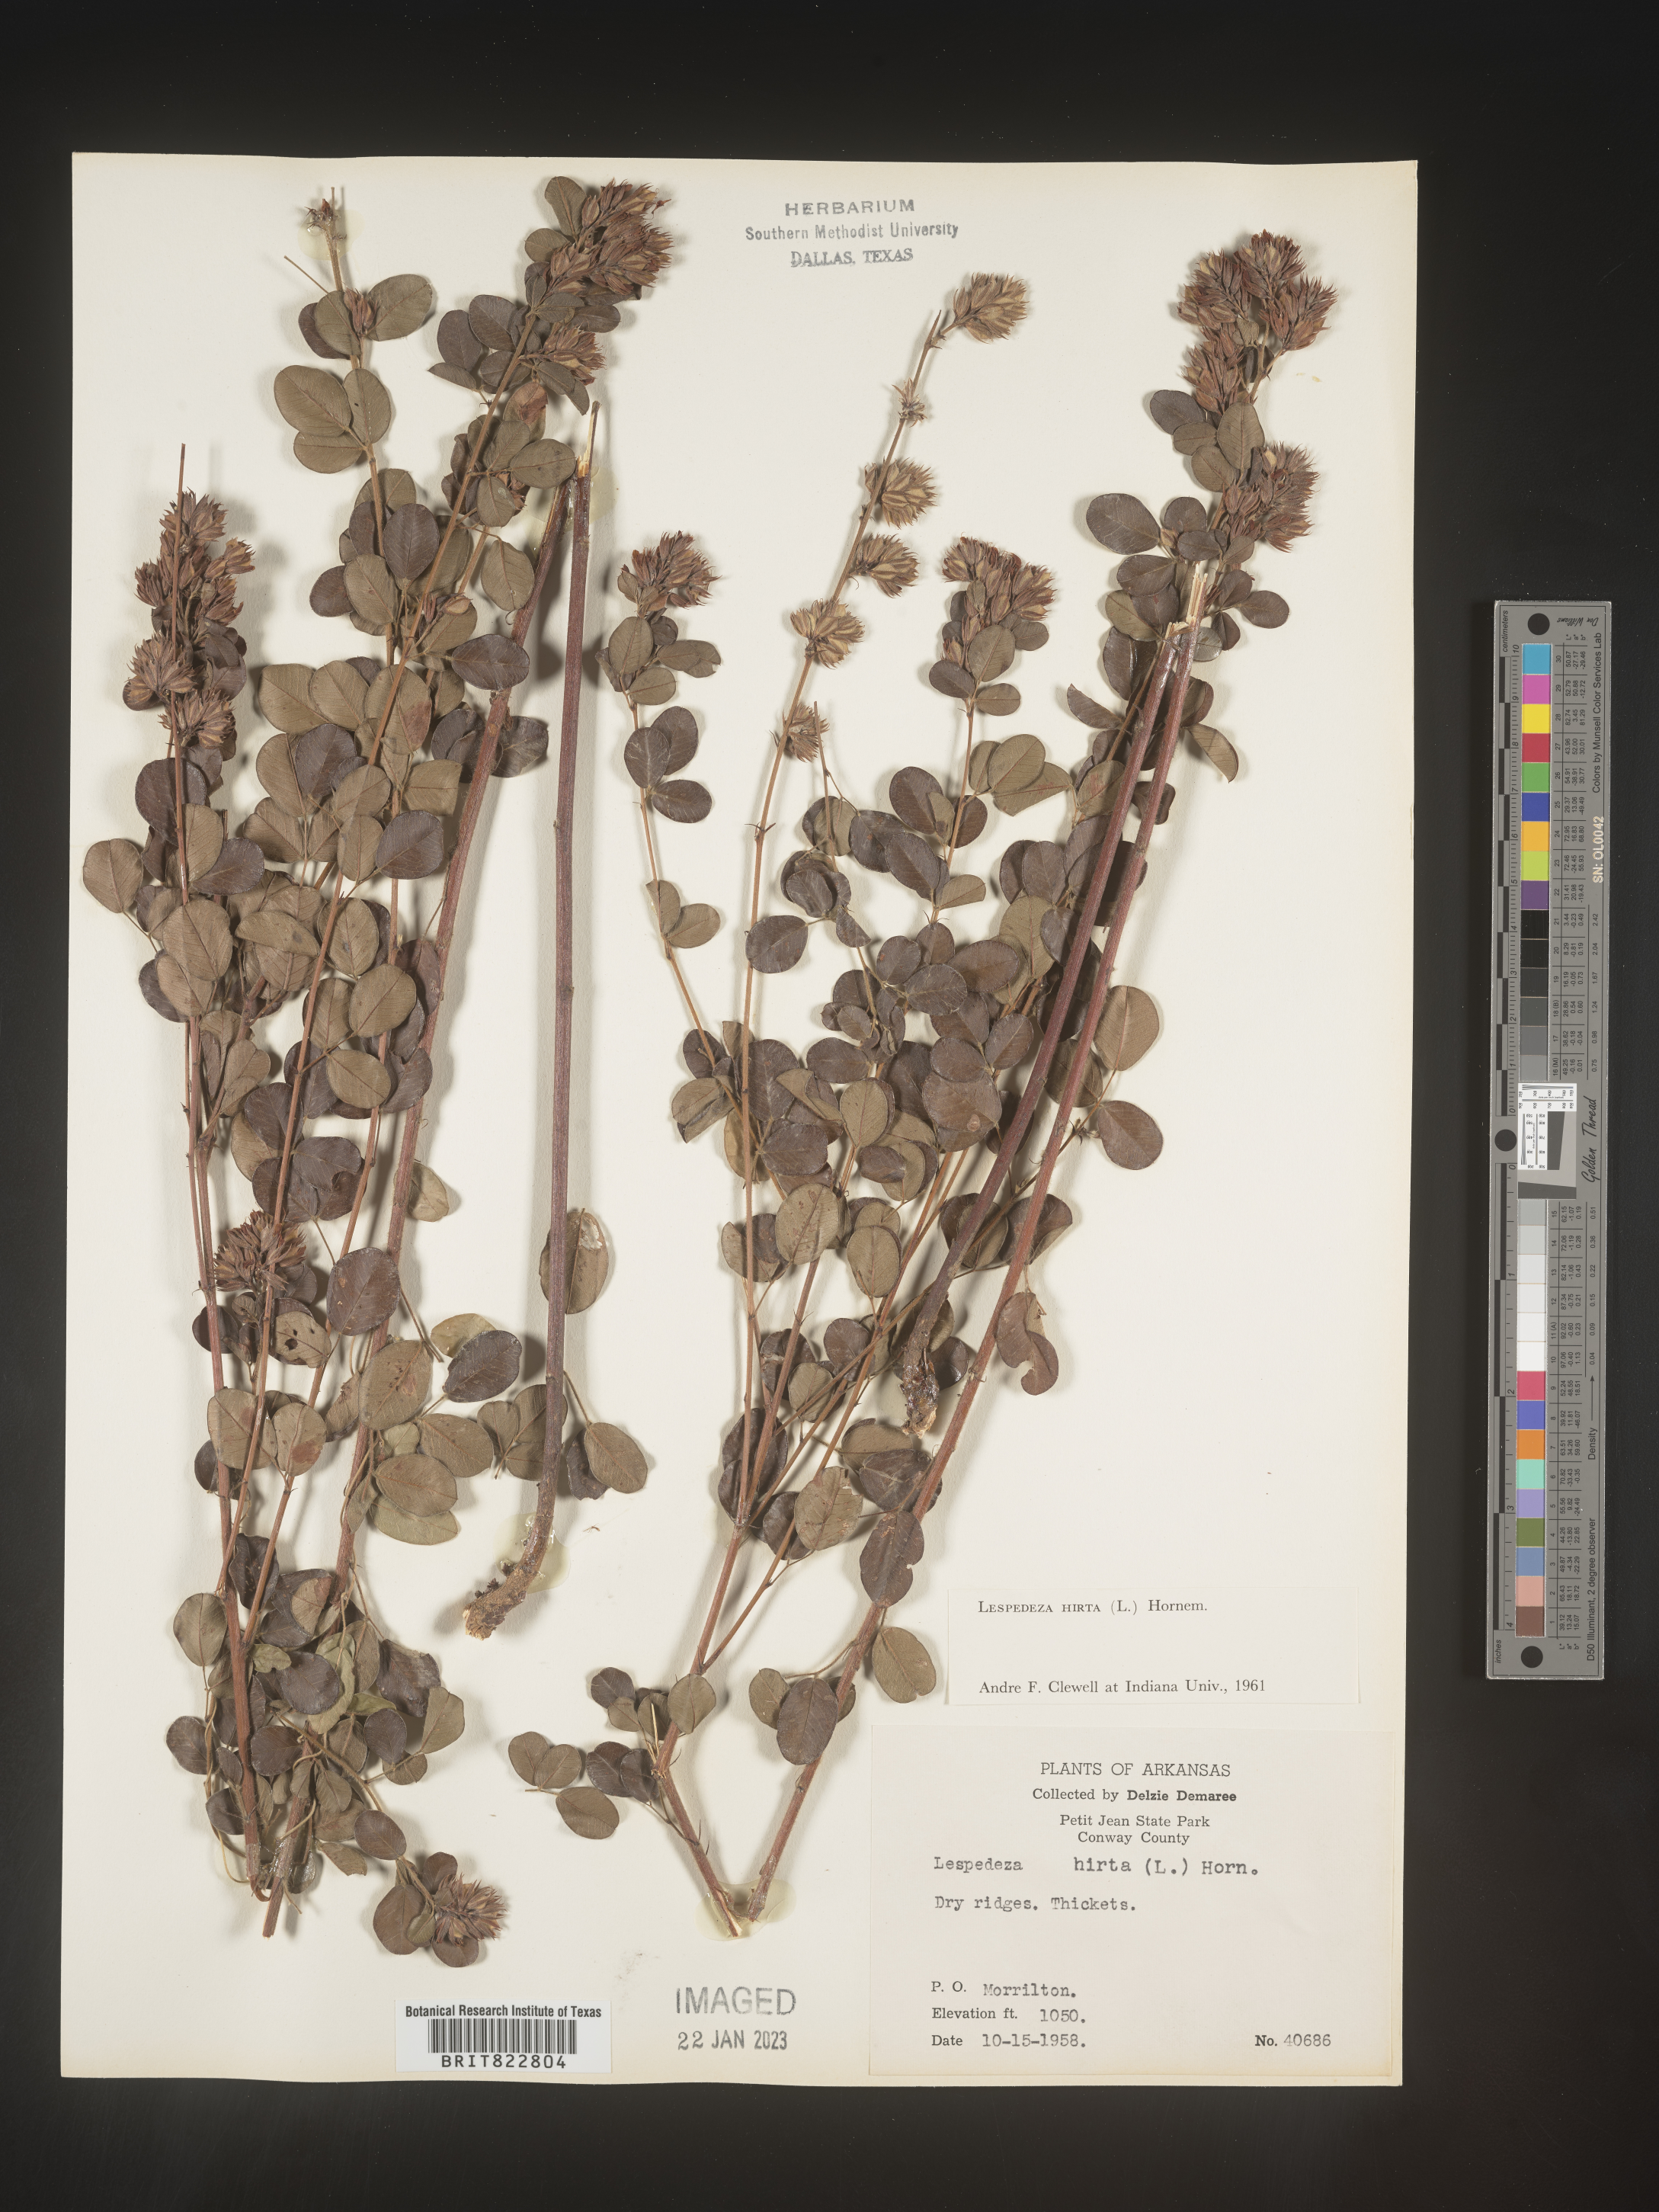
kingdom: Plantae
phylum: Tracheophyta
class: Magnoliopsida
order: Fabales
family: Fabaceae
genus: Lespedeza
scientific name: Lespedeza hirta
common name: Hairy lespedeza
